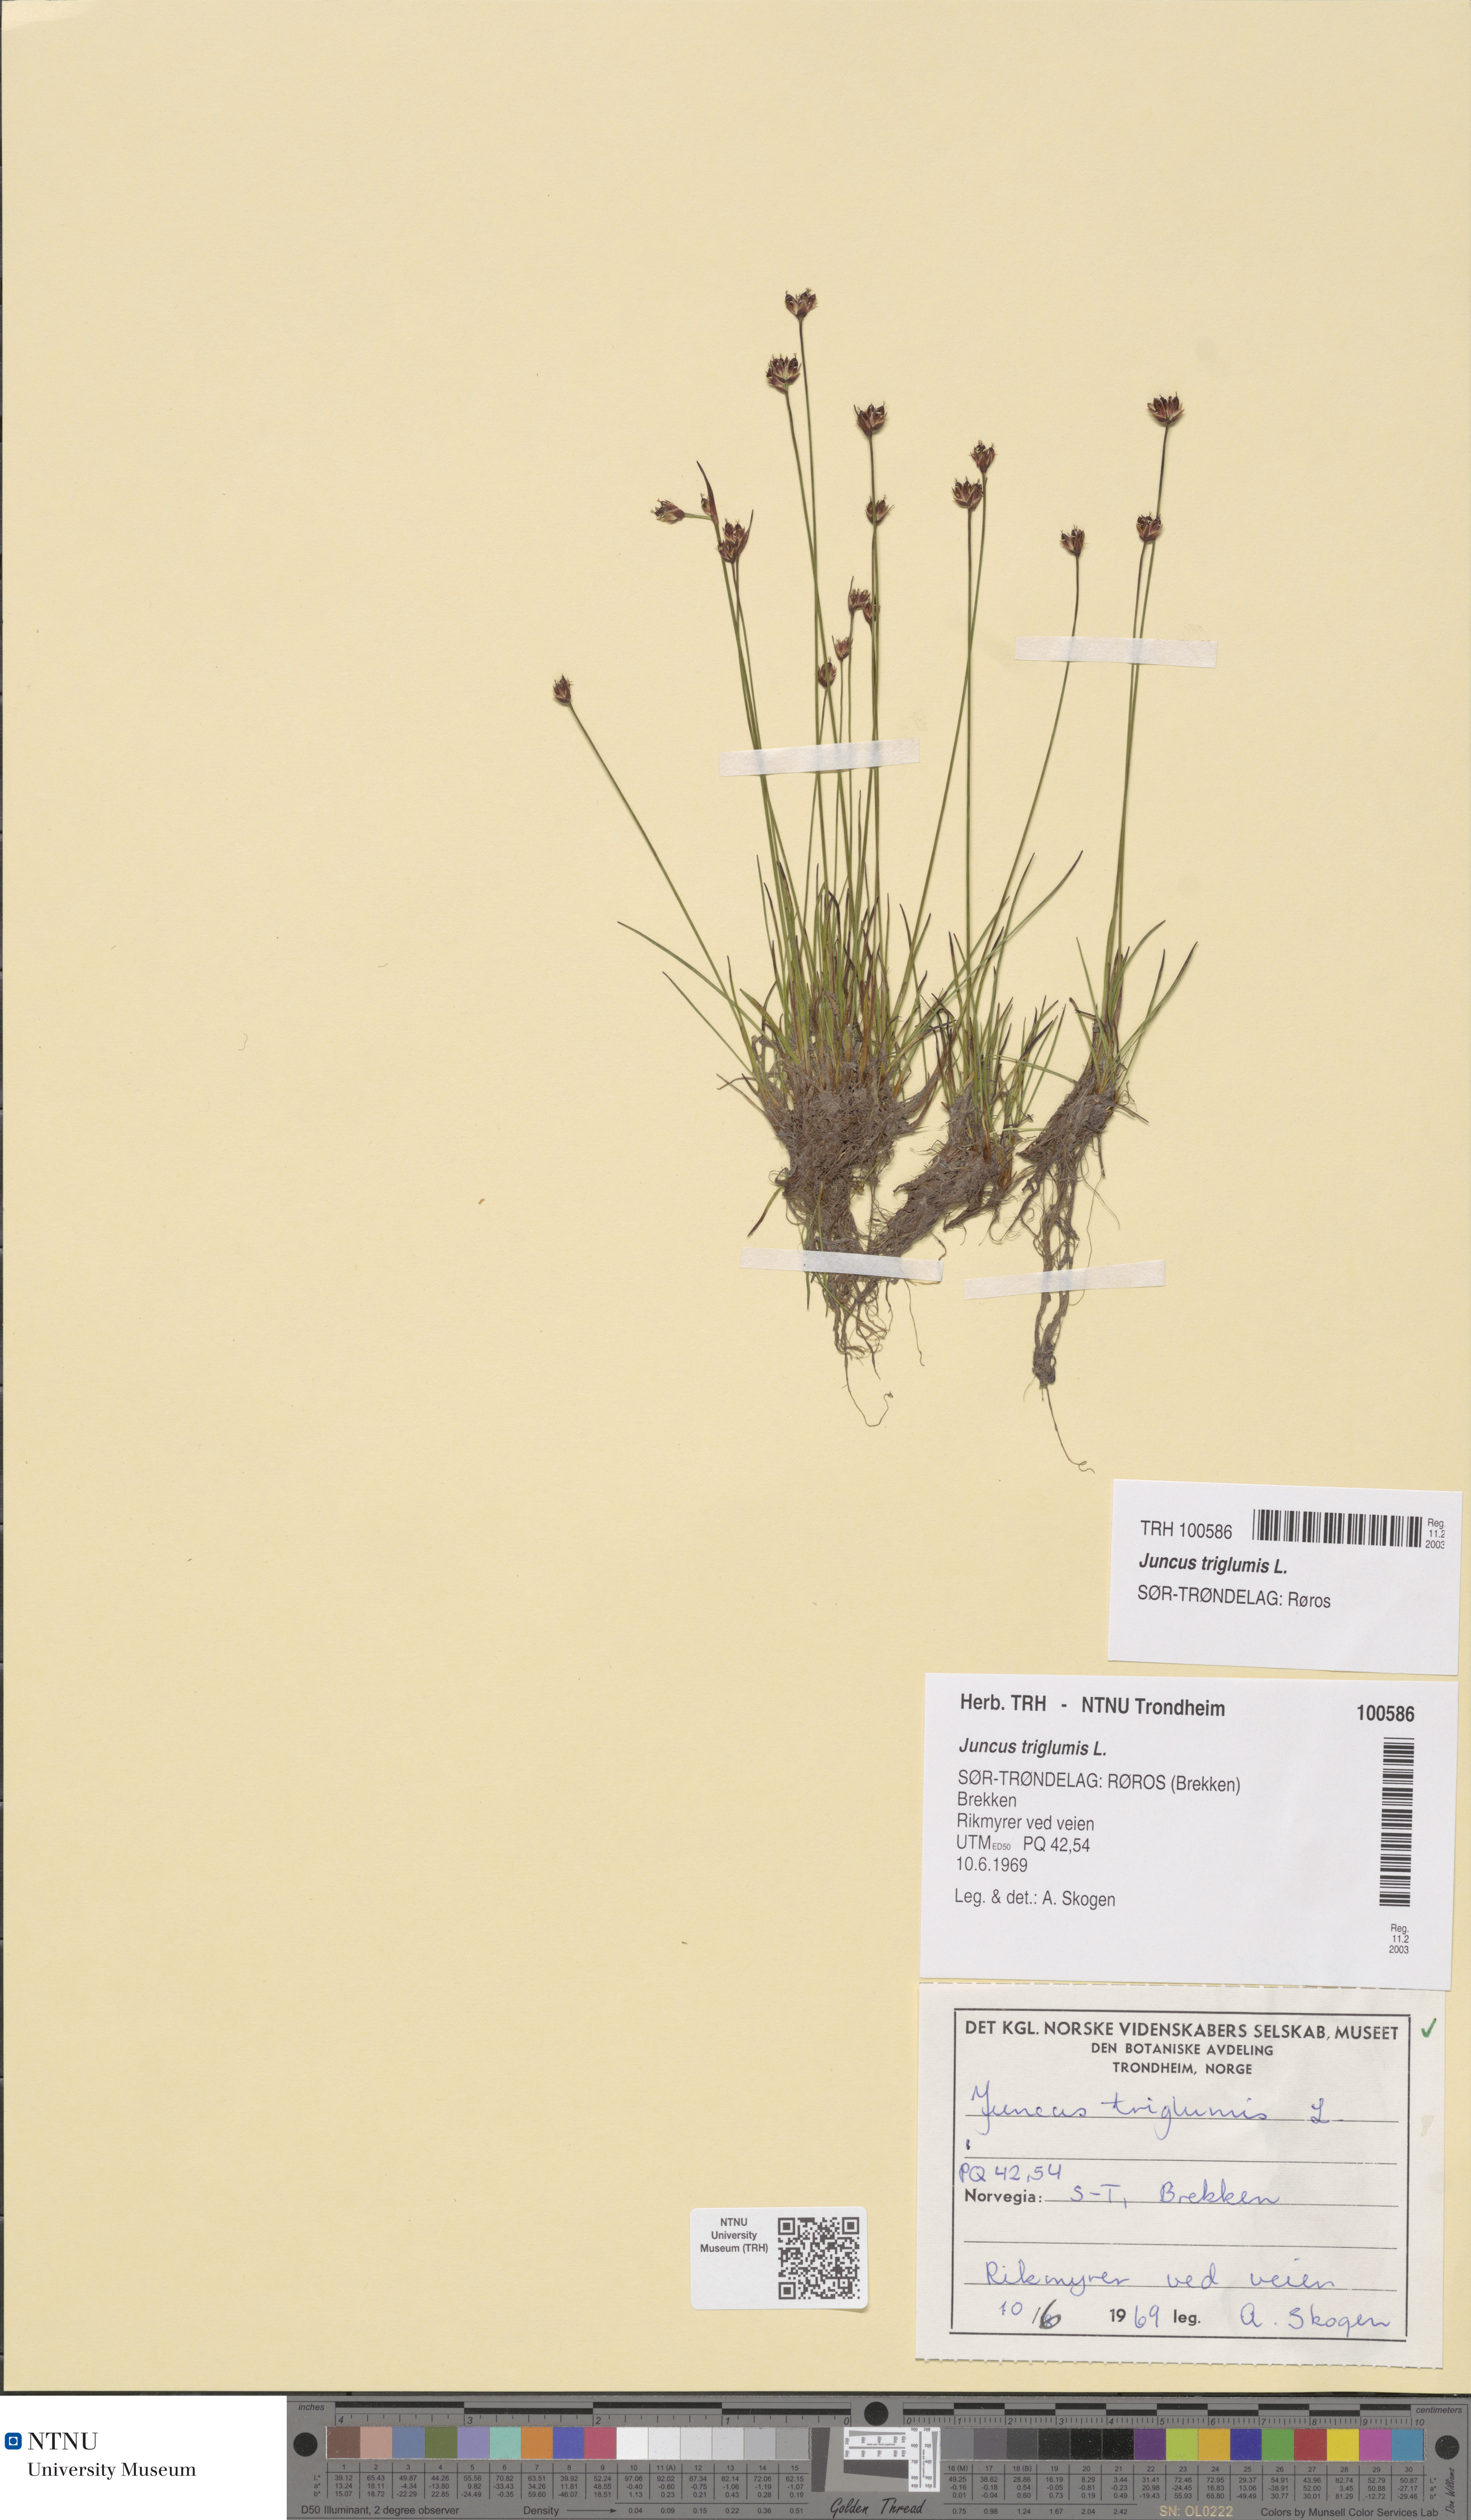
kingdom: Plantae
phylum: Tracheophyta
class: Liliopsida
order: Poales
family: Juncaceae
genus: Juncus
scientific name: Juncus triglumis
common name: Three-flowered rush
